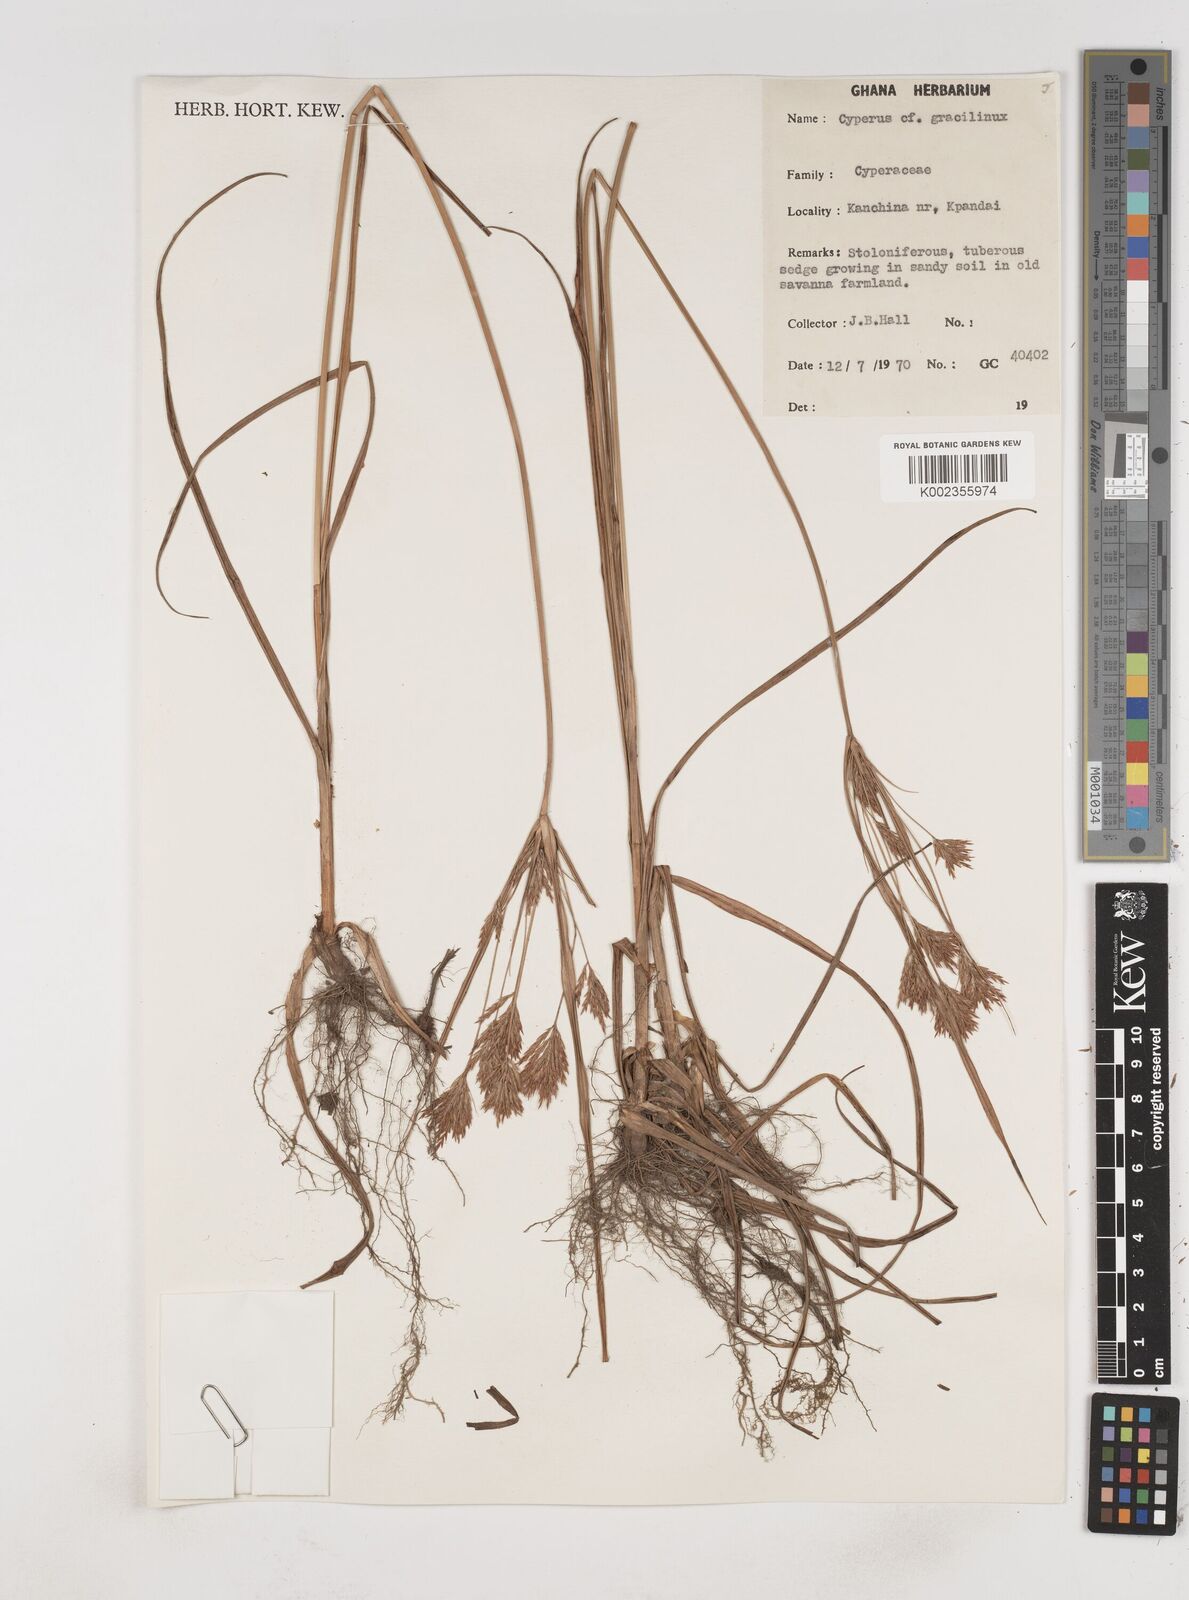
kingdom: Plantae
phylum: Tracheophyta
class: Liliopsida
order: Poales
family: Cyperaceae
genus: Cyperus
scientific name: Cyperus dilatatus
